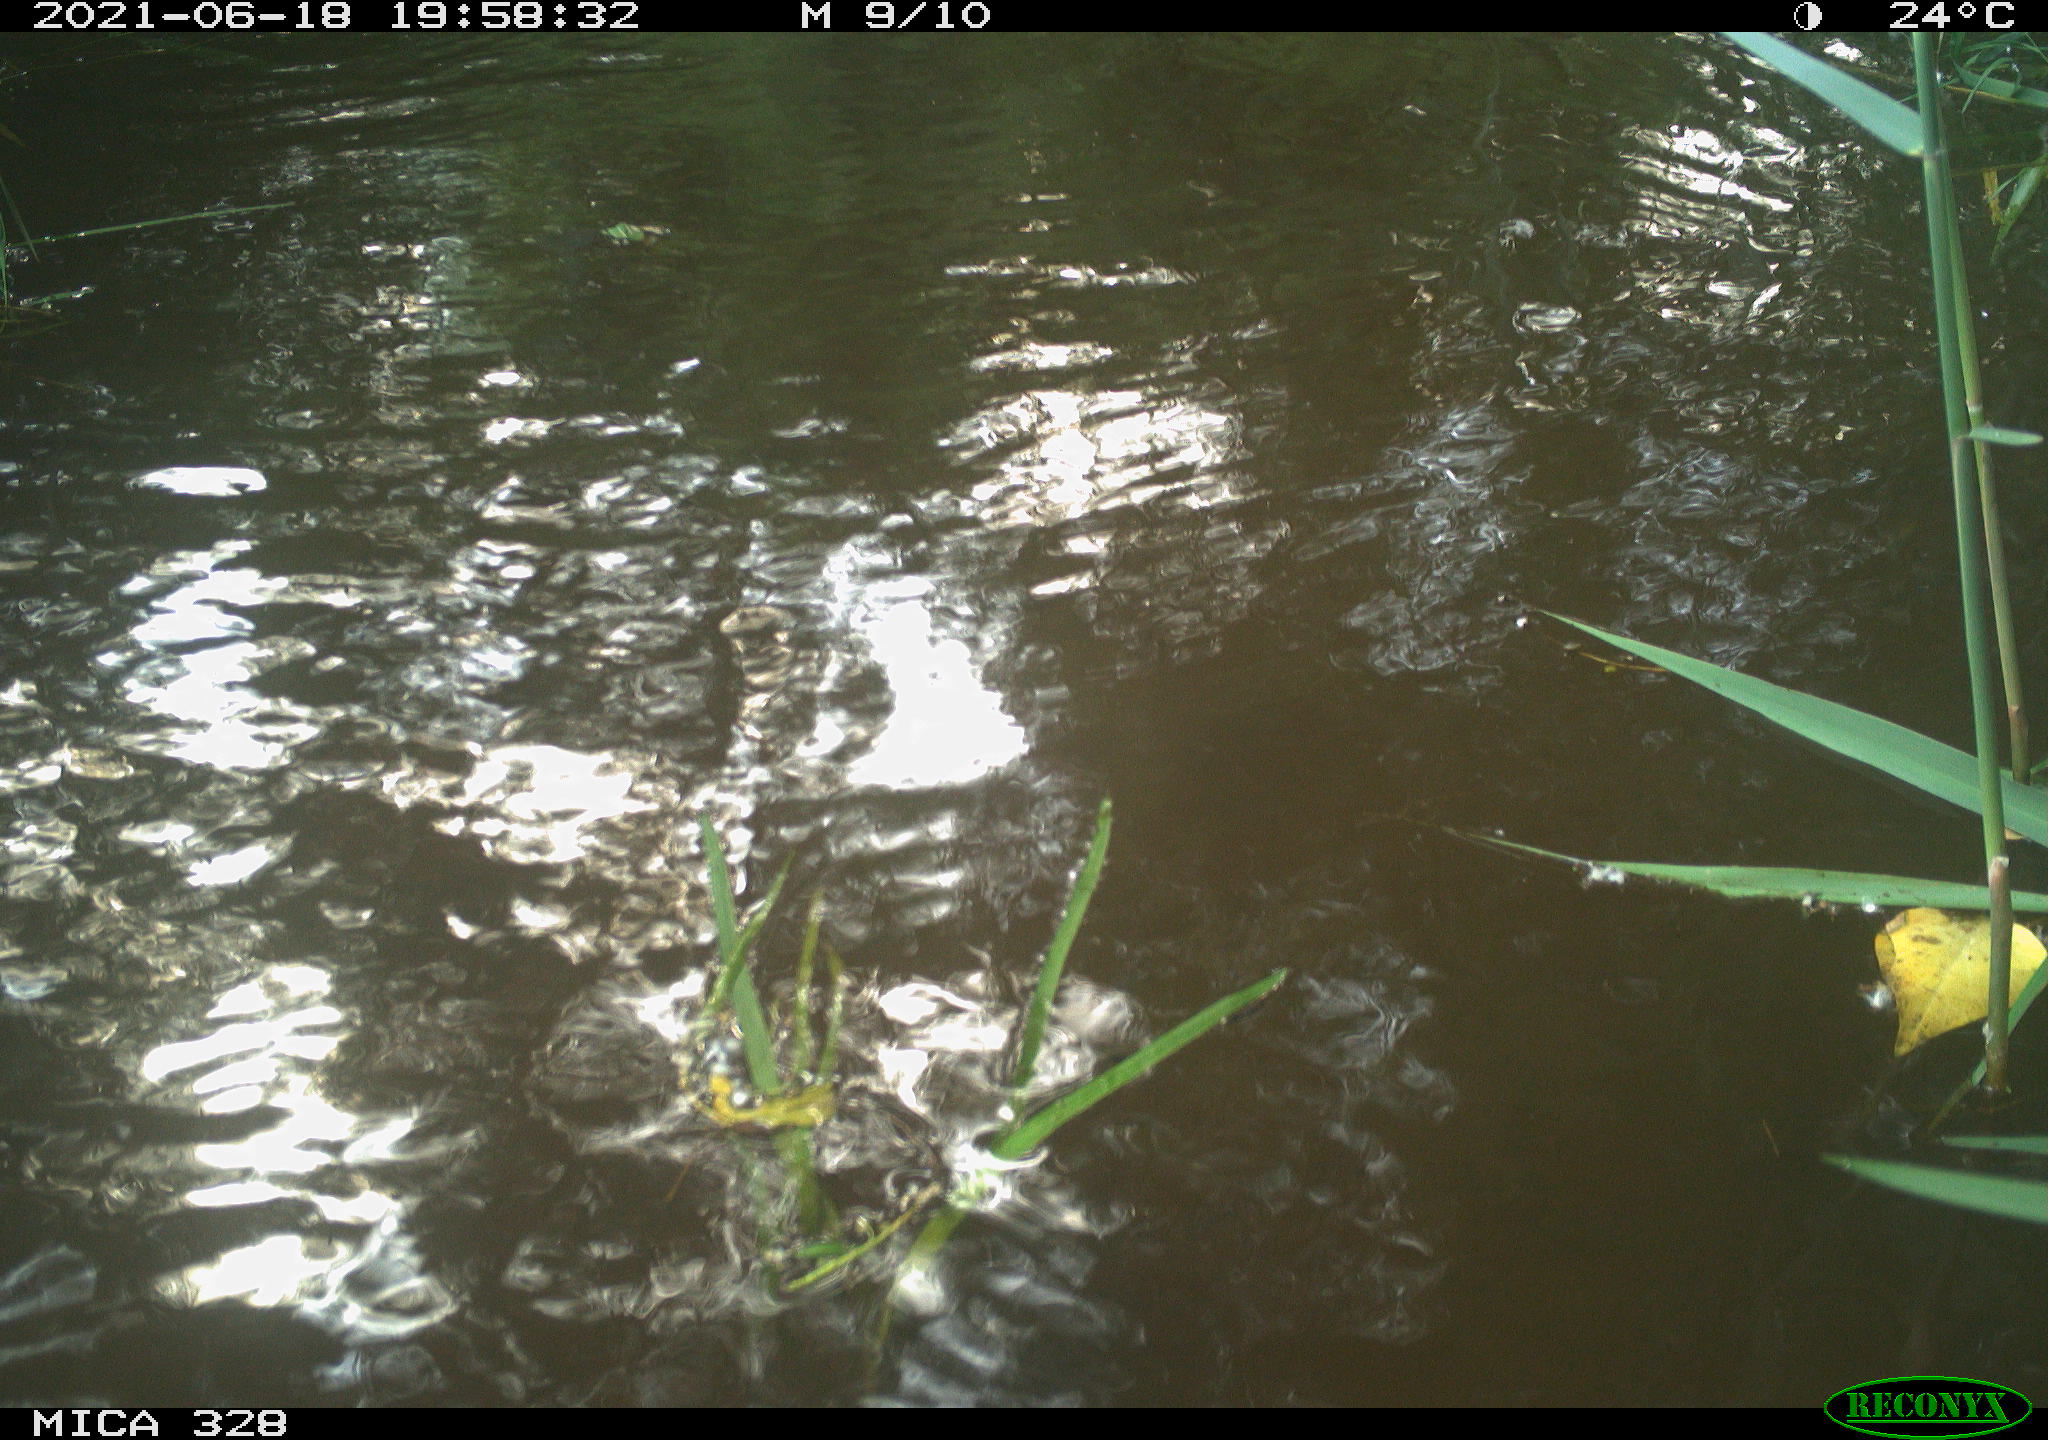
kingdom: Animalia
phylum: Chordata
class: Mammalia
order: Rodentia
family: Cricetidae
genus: Ondatra
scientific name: Ondatra zibethicus
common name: Muskrat
